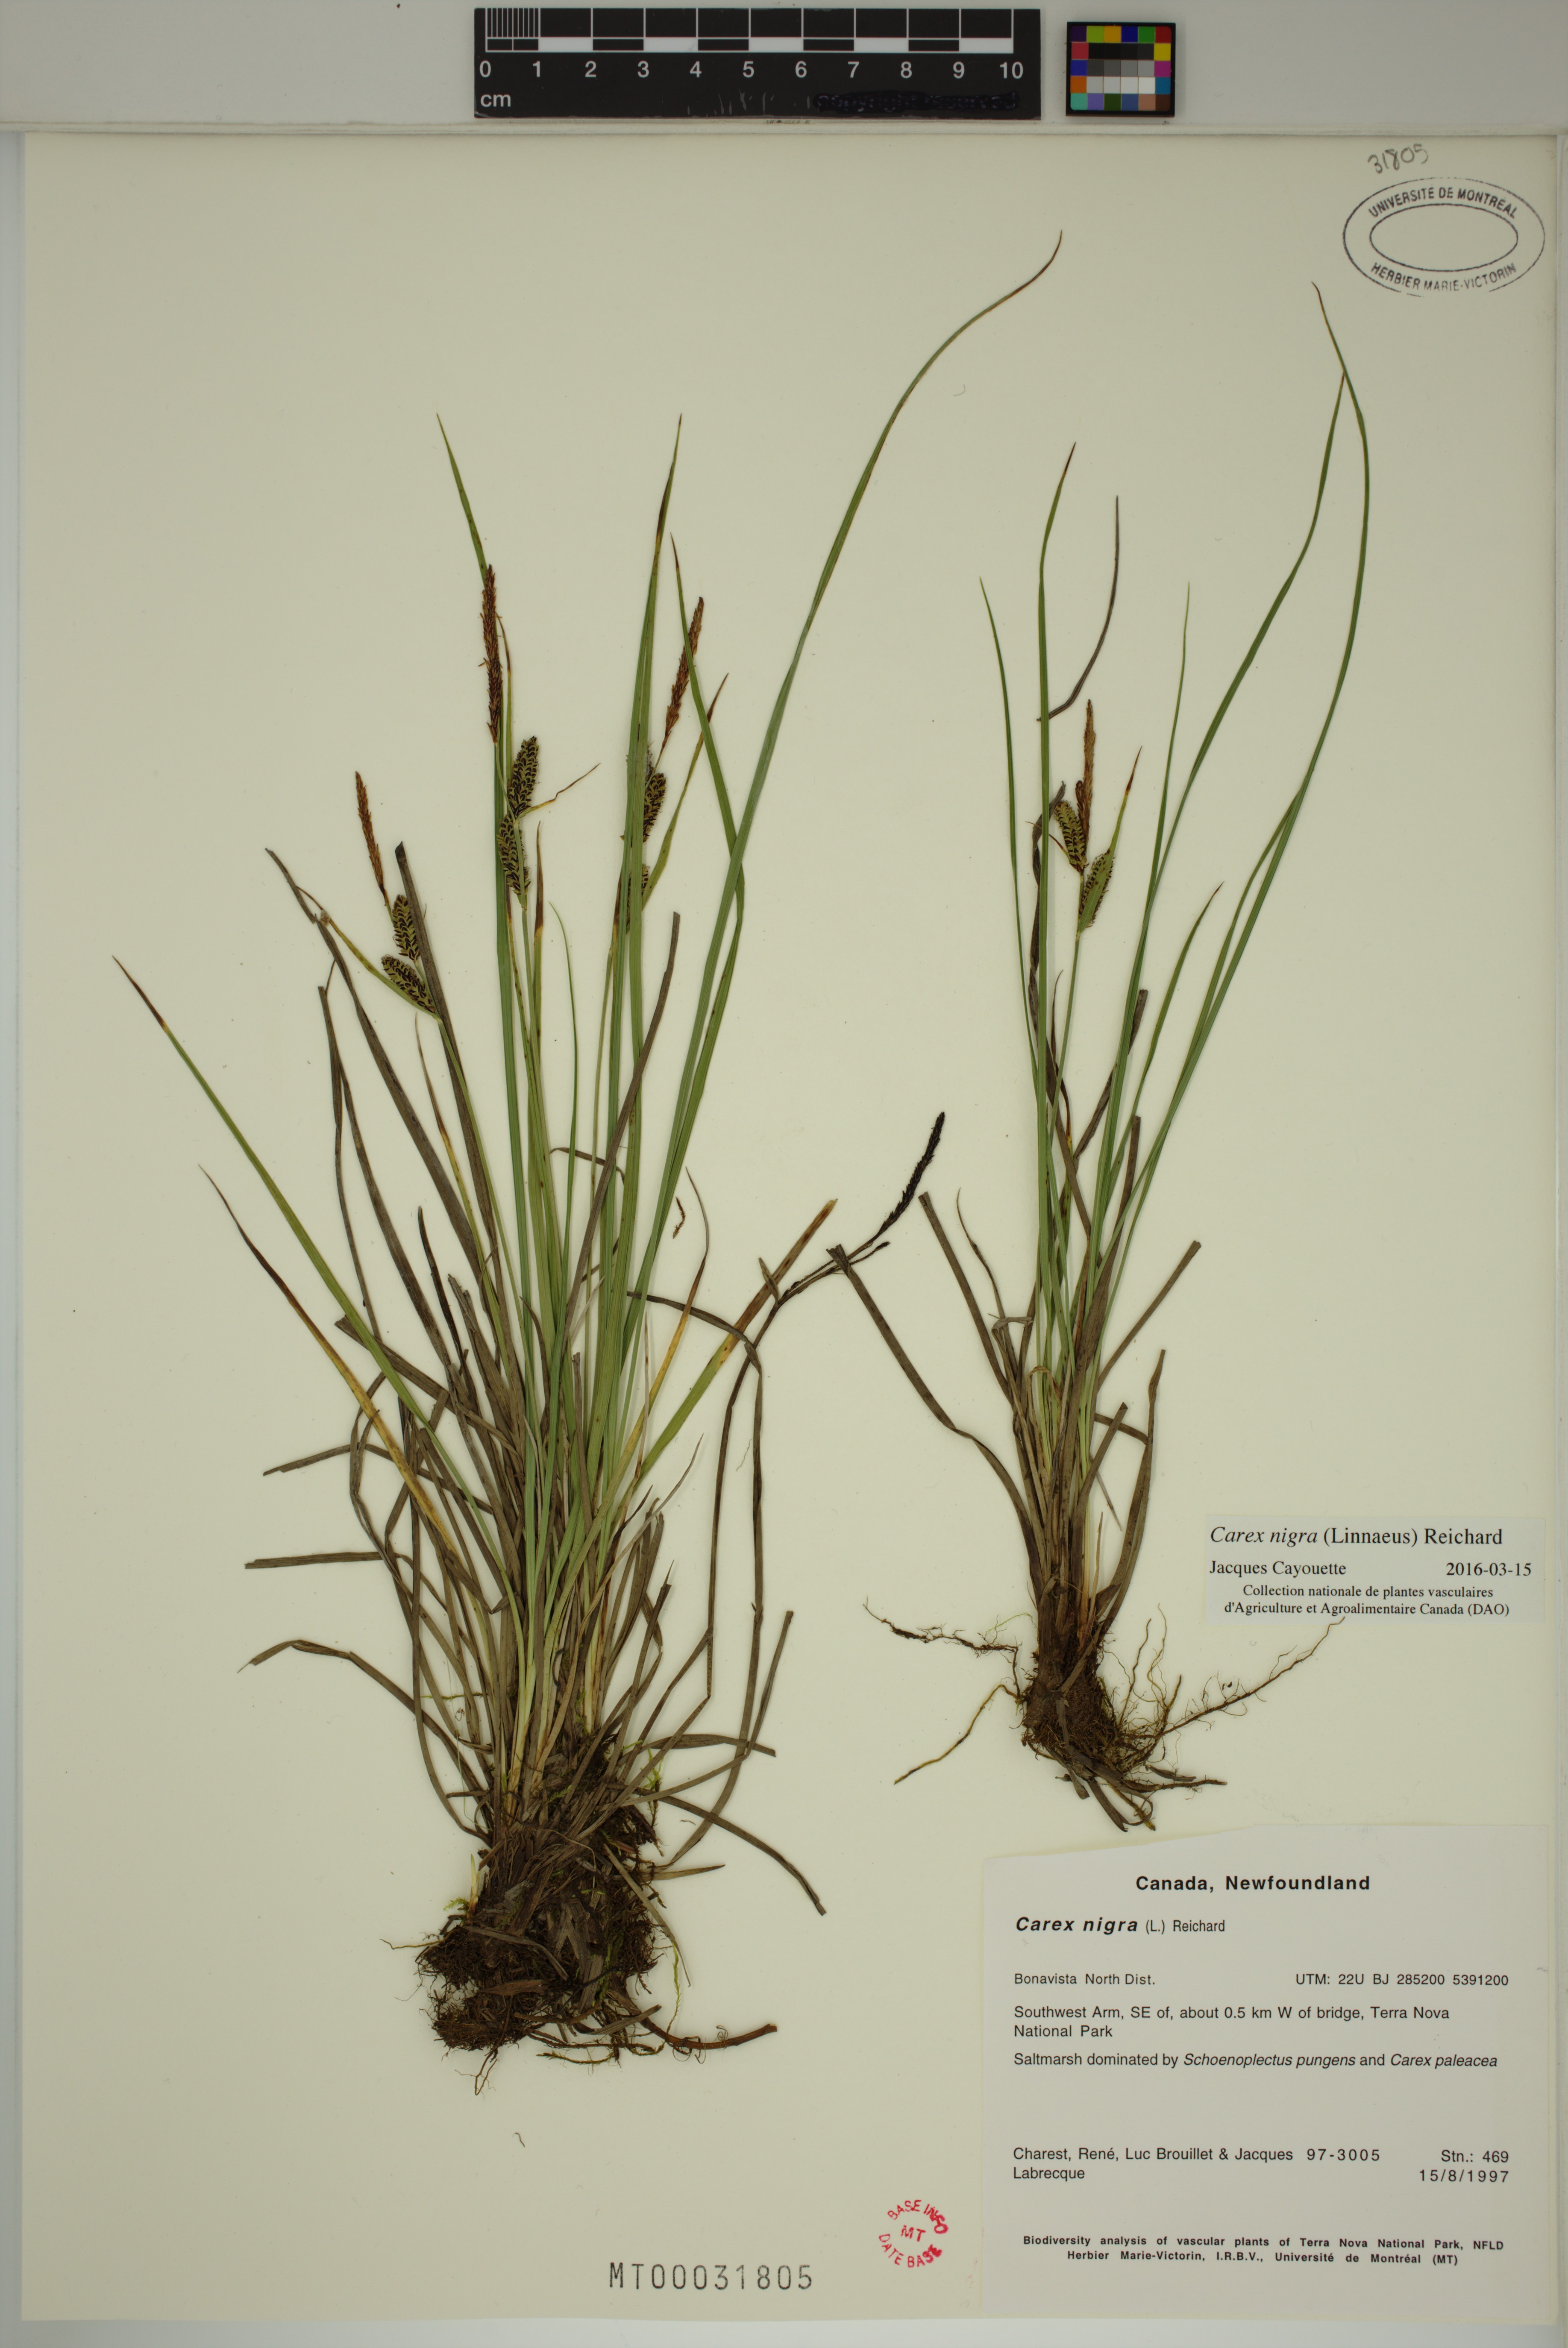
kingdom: Plantae
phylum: Tracheophyta
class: Liliopsida
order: Poales
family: Cyperaceae
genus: Carex
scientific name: Carex nigra
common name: Common sedge
